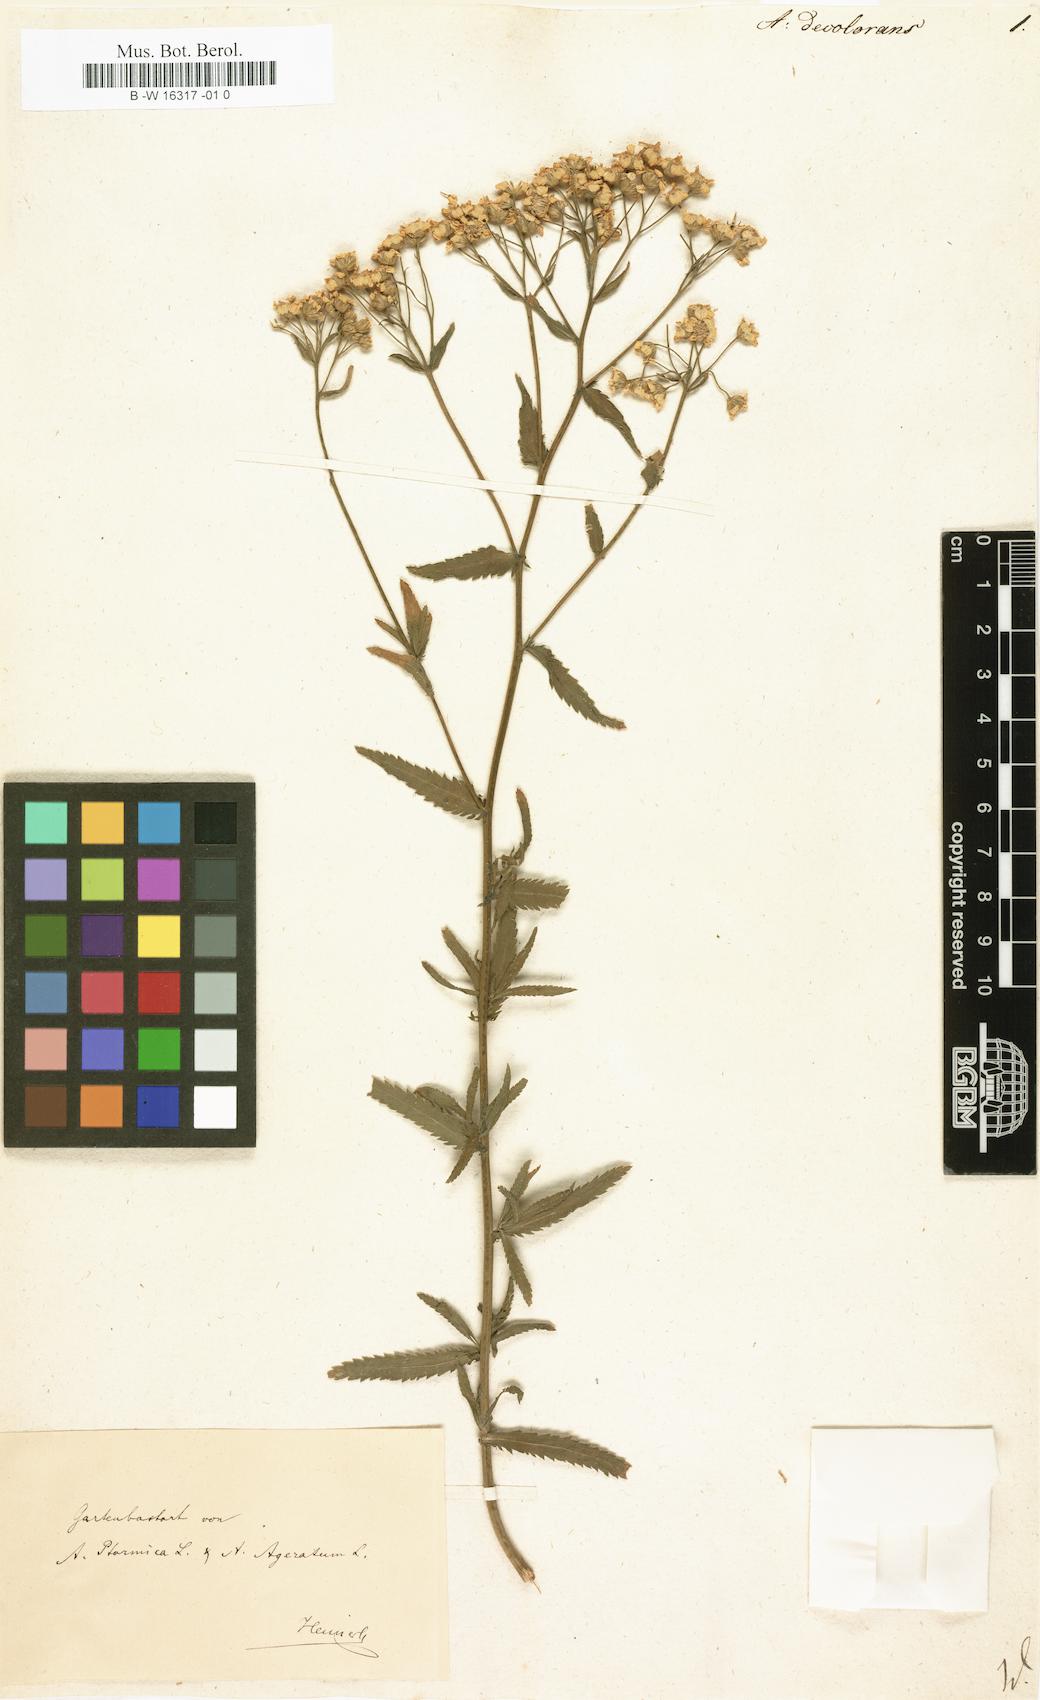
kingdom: Plantae
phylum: Tracheophyta
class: Magnoliopsida
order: Asterales
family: Asteraceae
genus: Achillea
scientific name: Achillea decolorans
